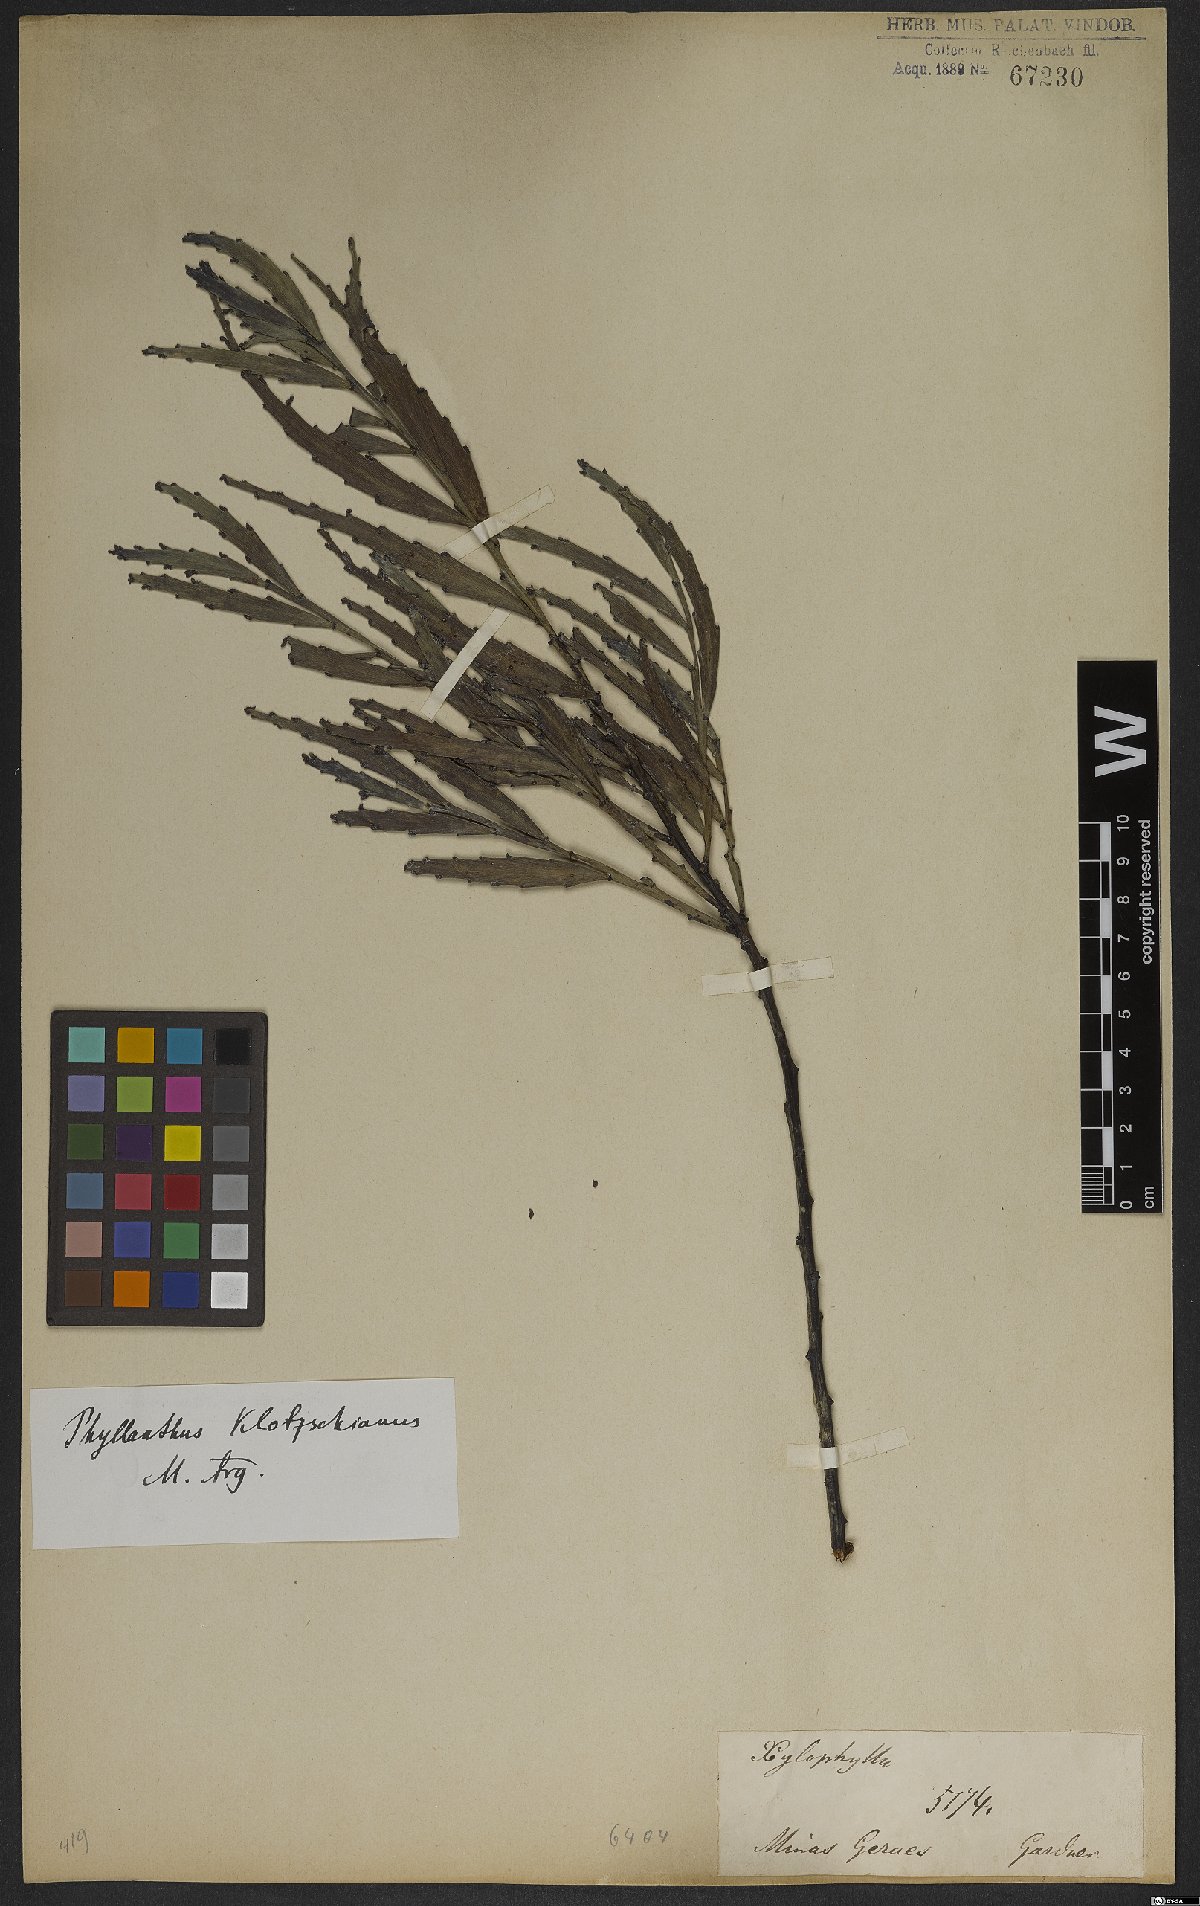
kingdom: Plantae
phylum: Tracheophyta
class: Magnoliopsida
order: Malpighiales
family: Phyllanthaceae
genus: Phyllanthus
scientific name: Phyllanthus robustus
